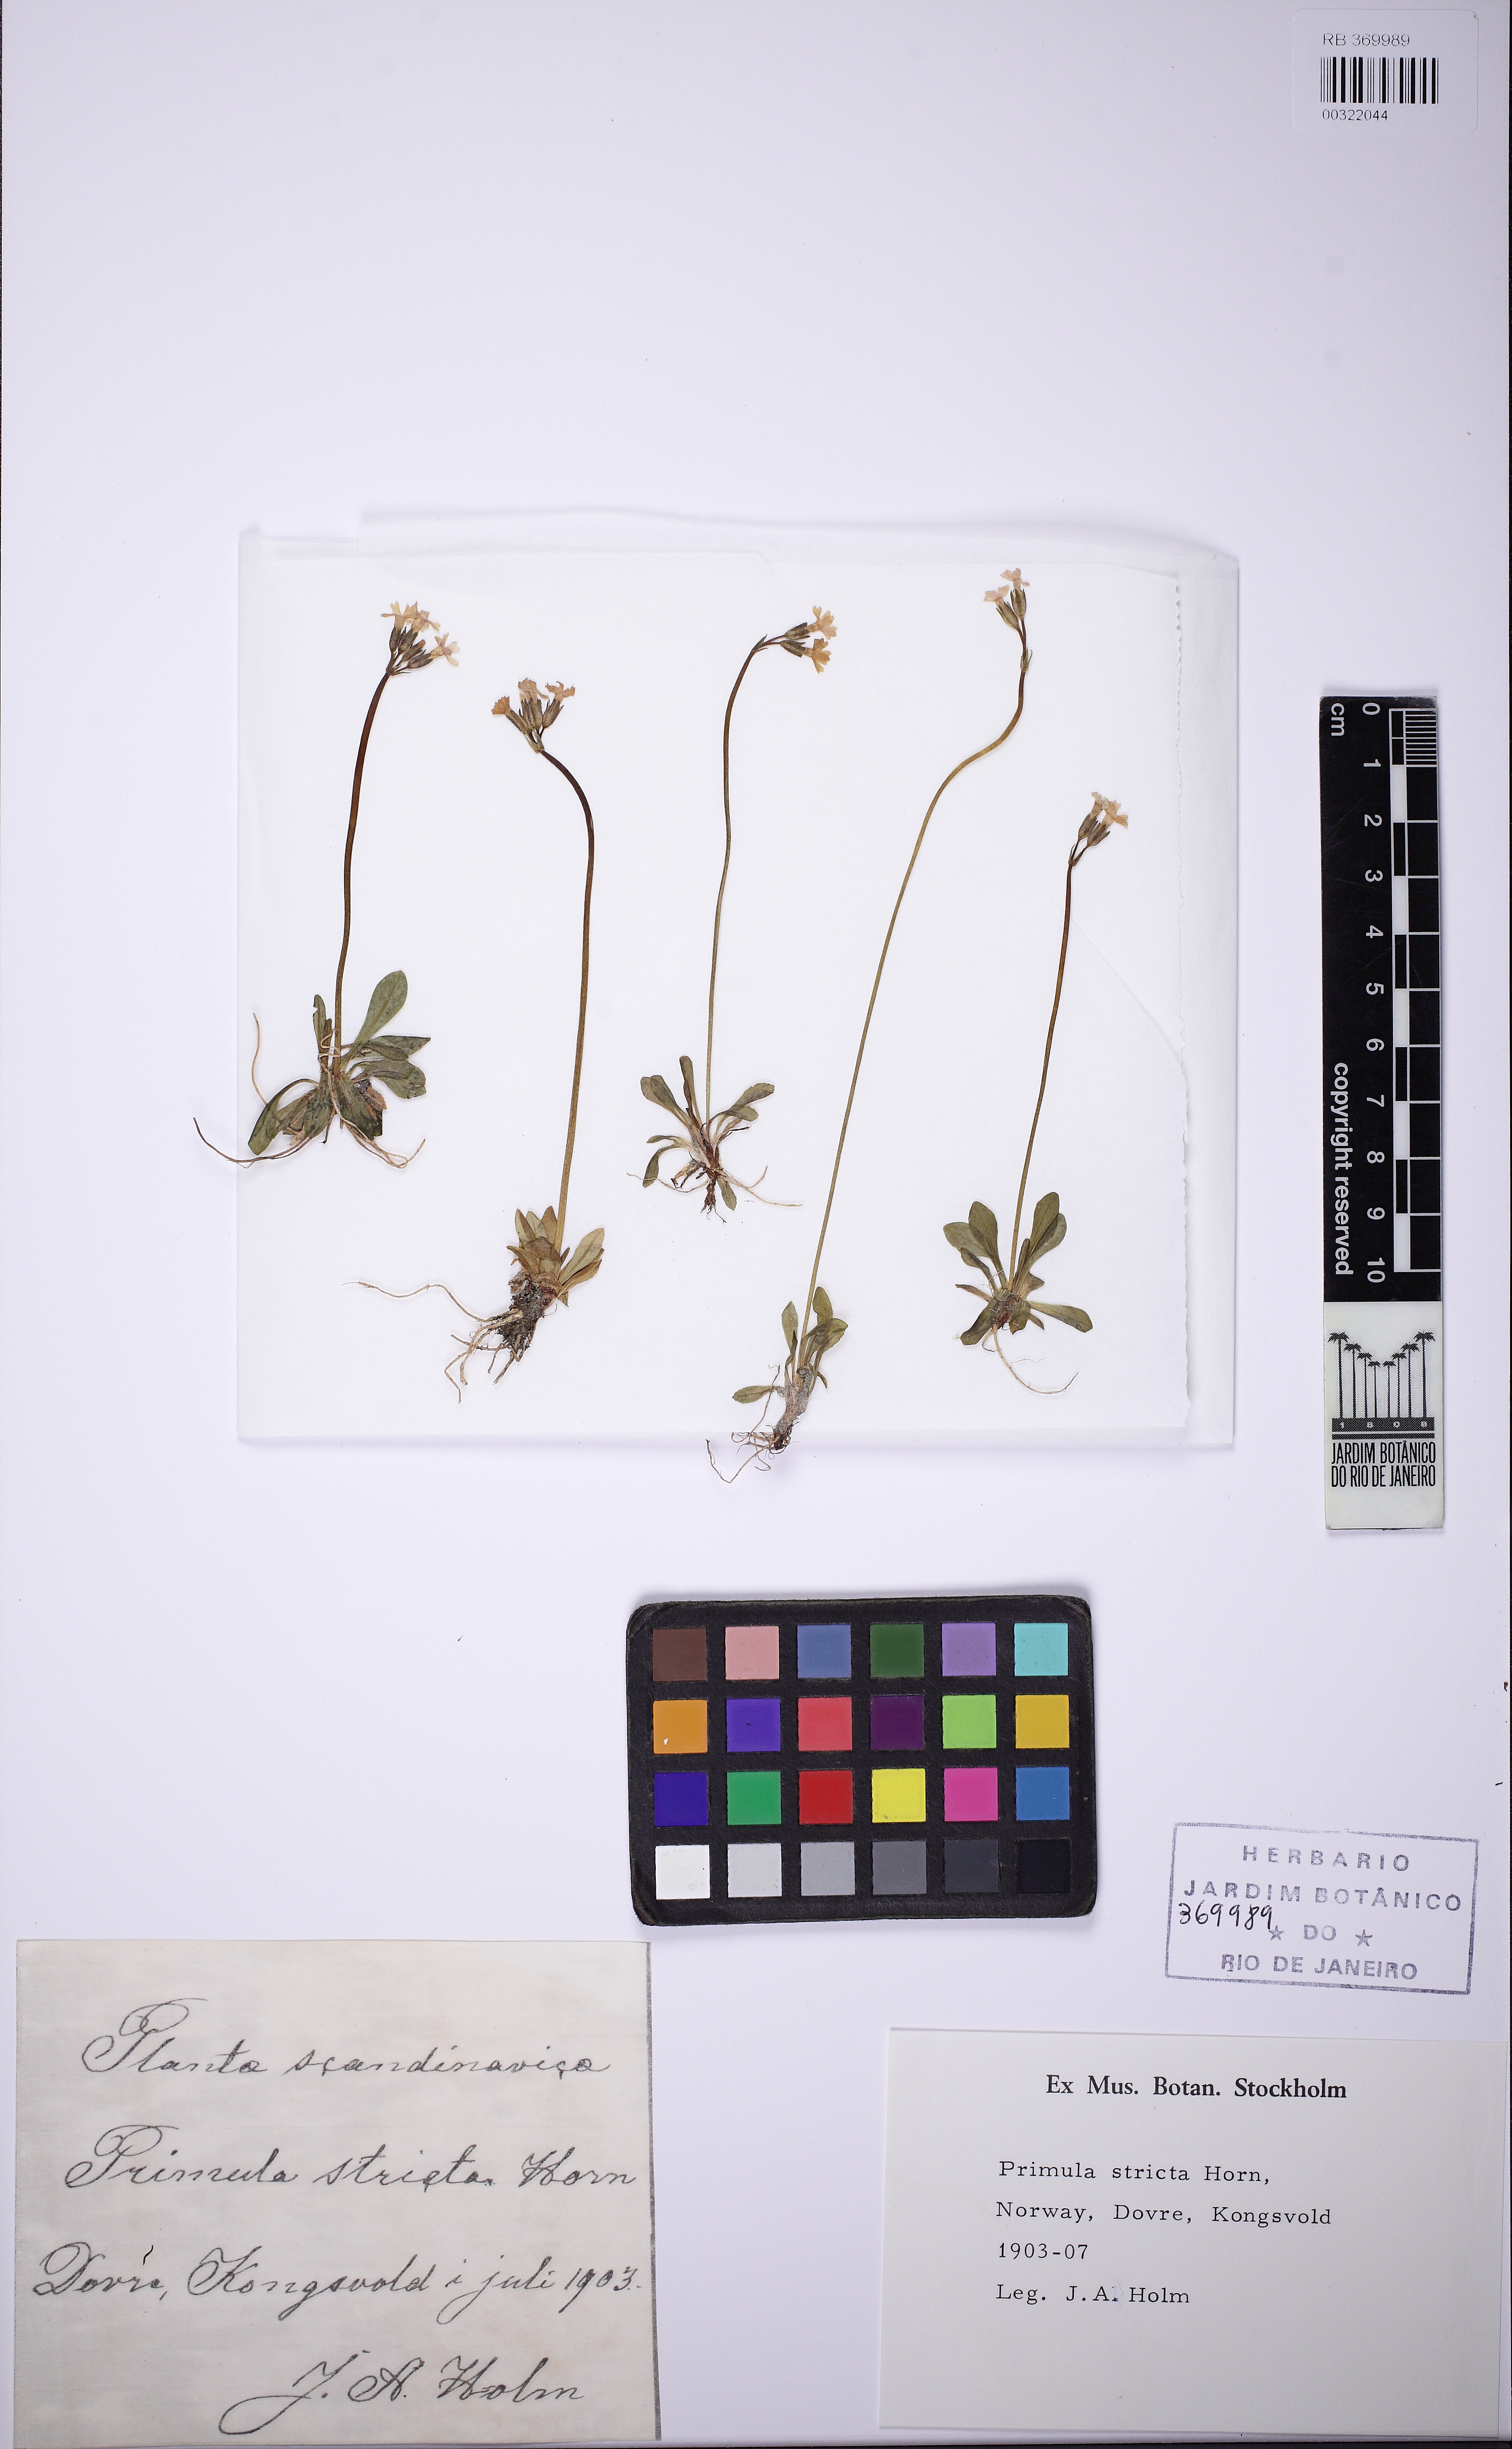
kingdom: Plantae
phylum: Tracheophyta
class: Magnoliopsida
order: Ericales
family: Primulaceae
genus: Primula
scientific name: Primula stricta
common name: Coastal primrose
